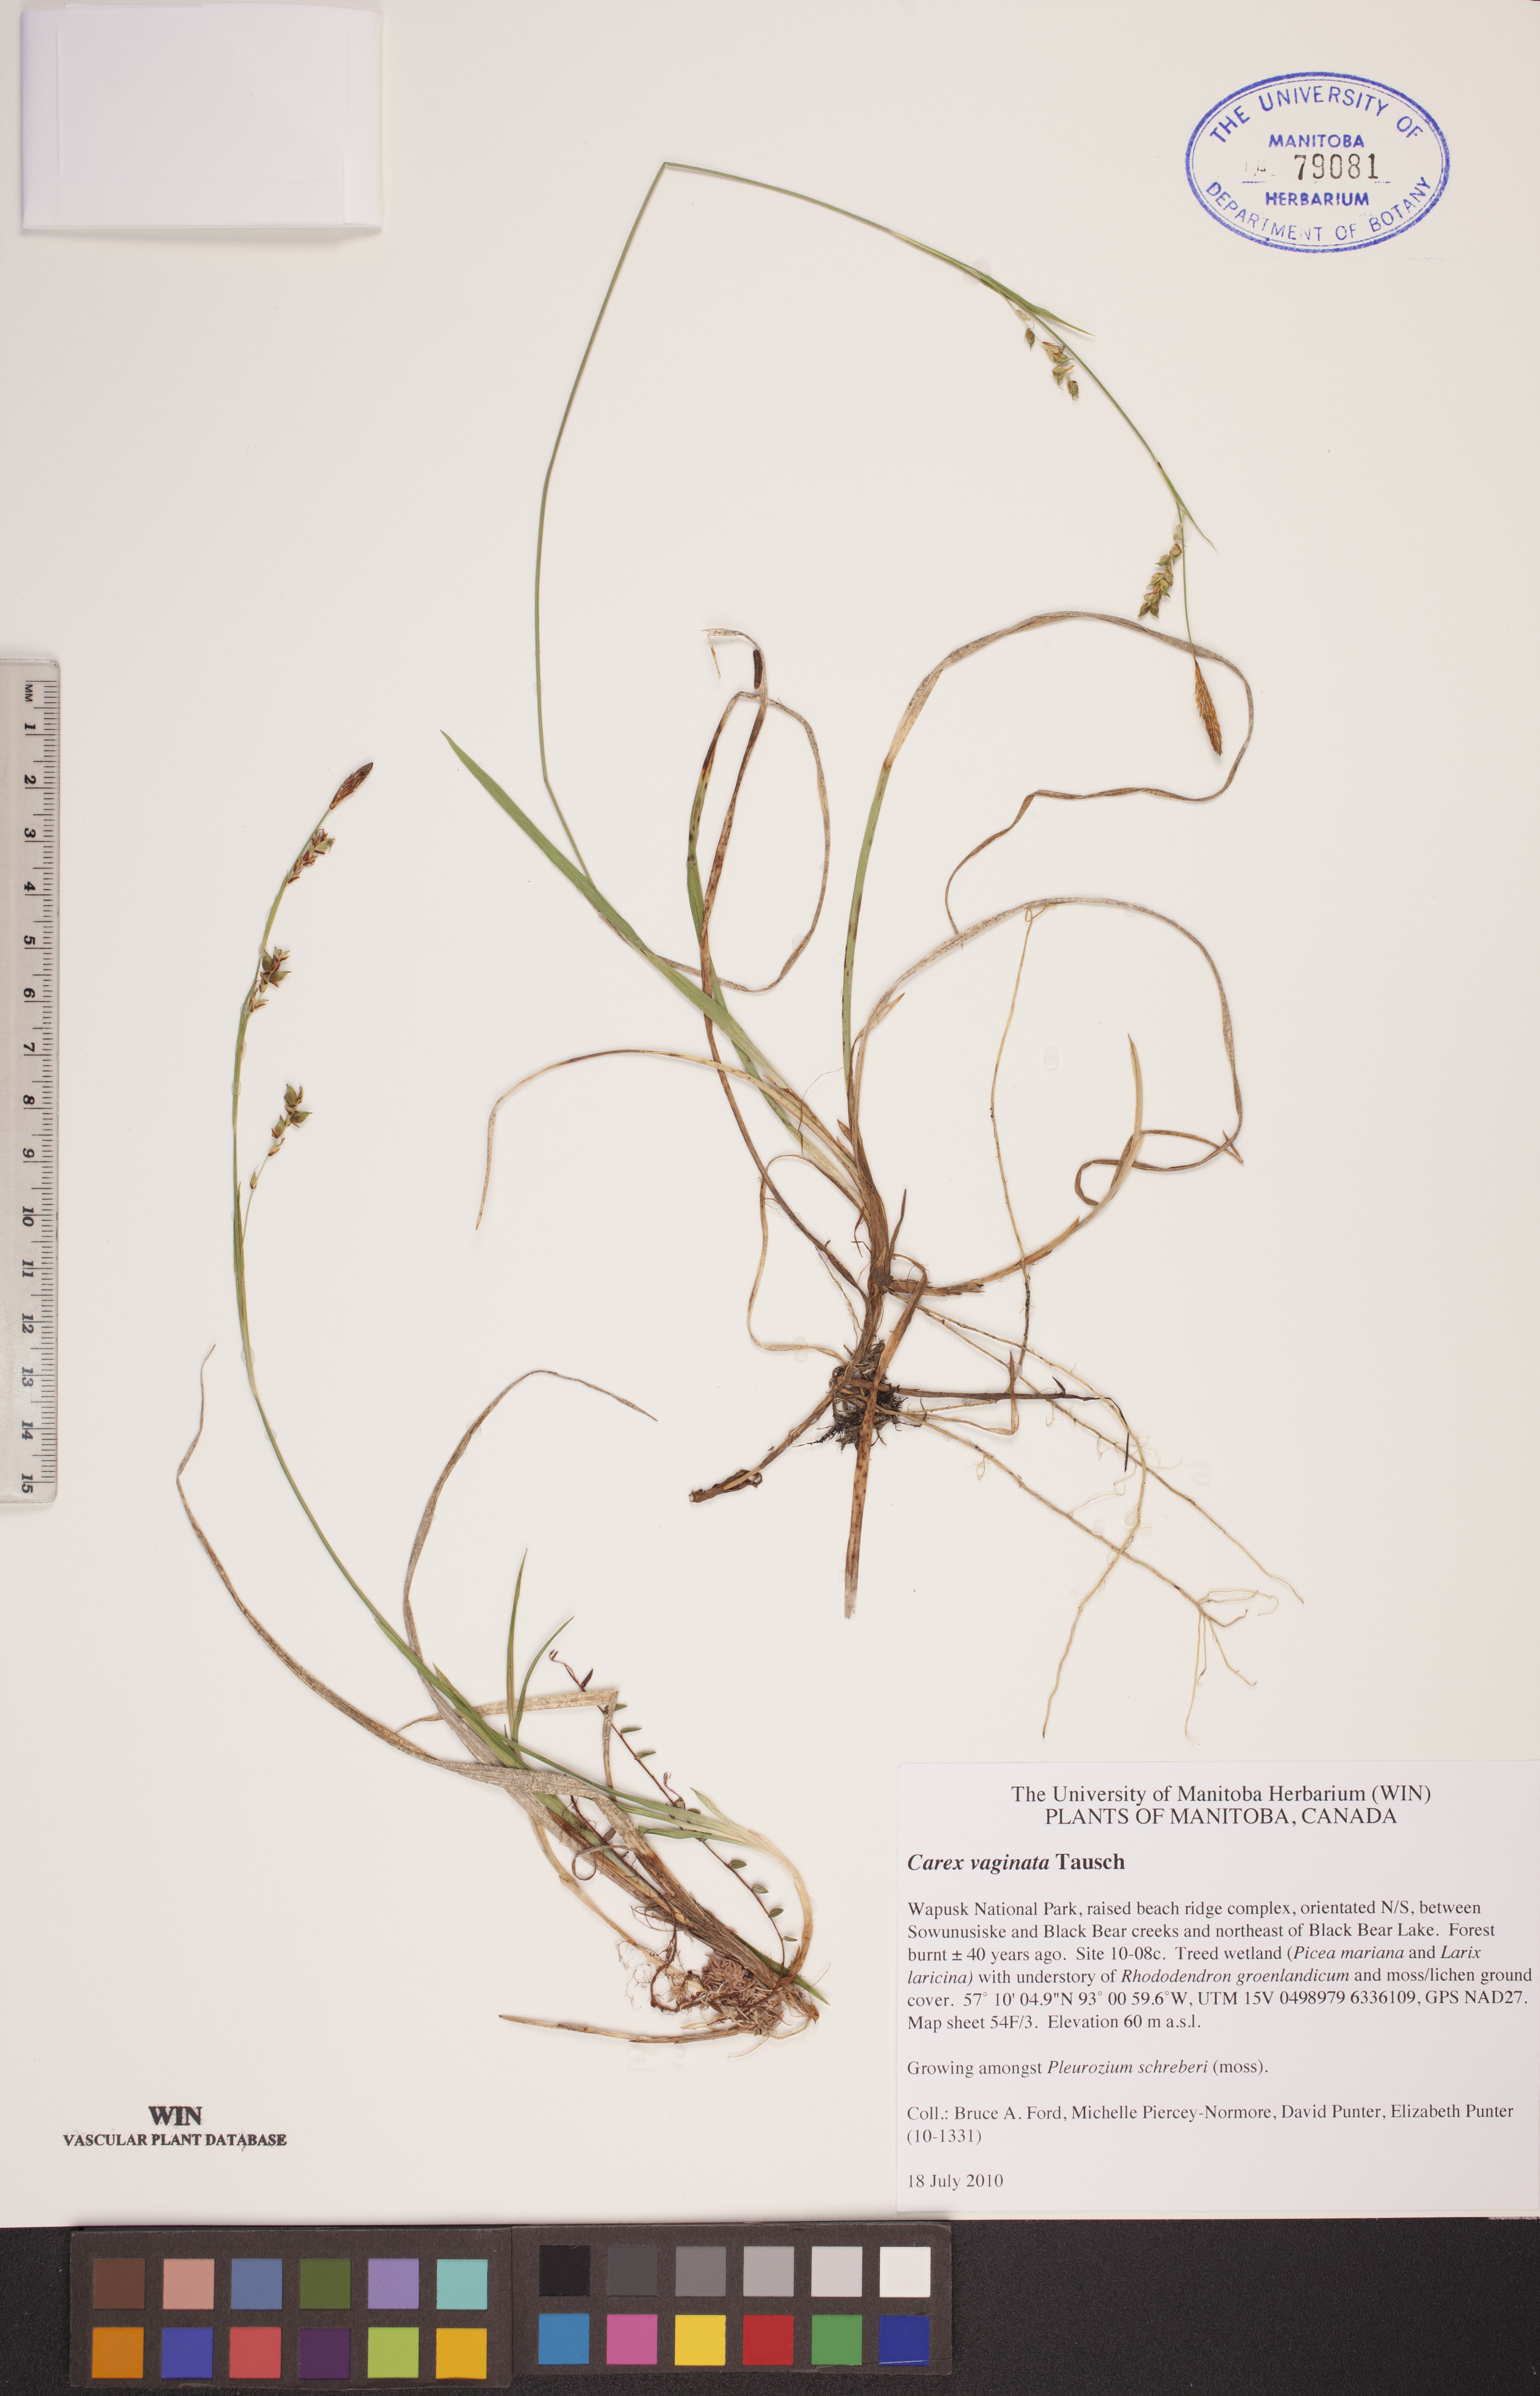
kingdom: Plantae
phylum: Tracheophyta
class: Liliopsida
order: Poales
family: Cyperaceae
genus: Carex
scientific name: Carex vaginata
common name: Sheathed sedge
